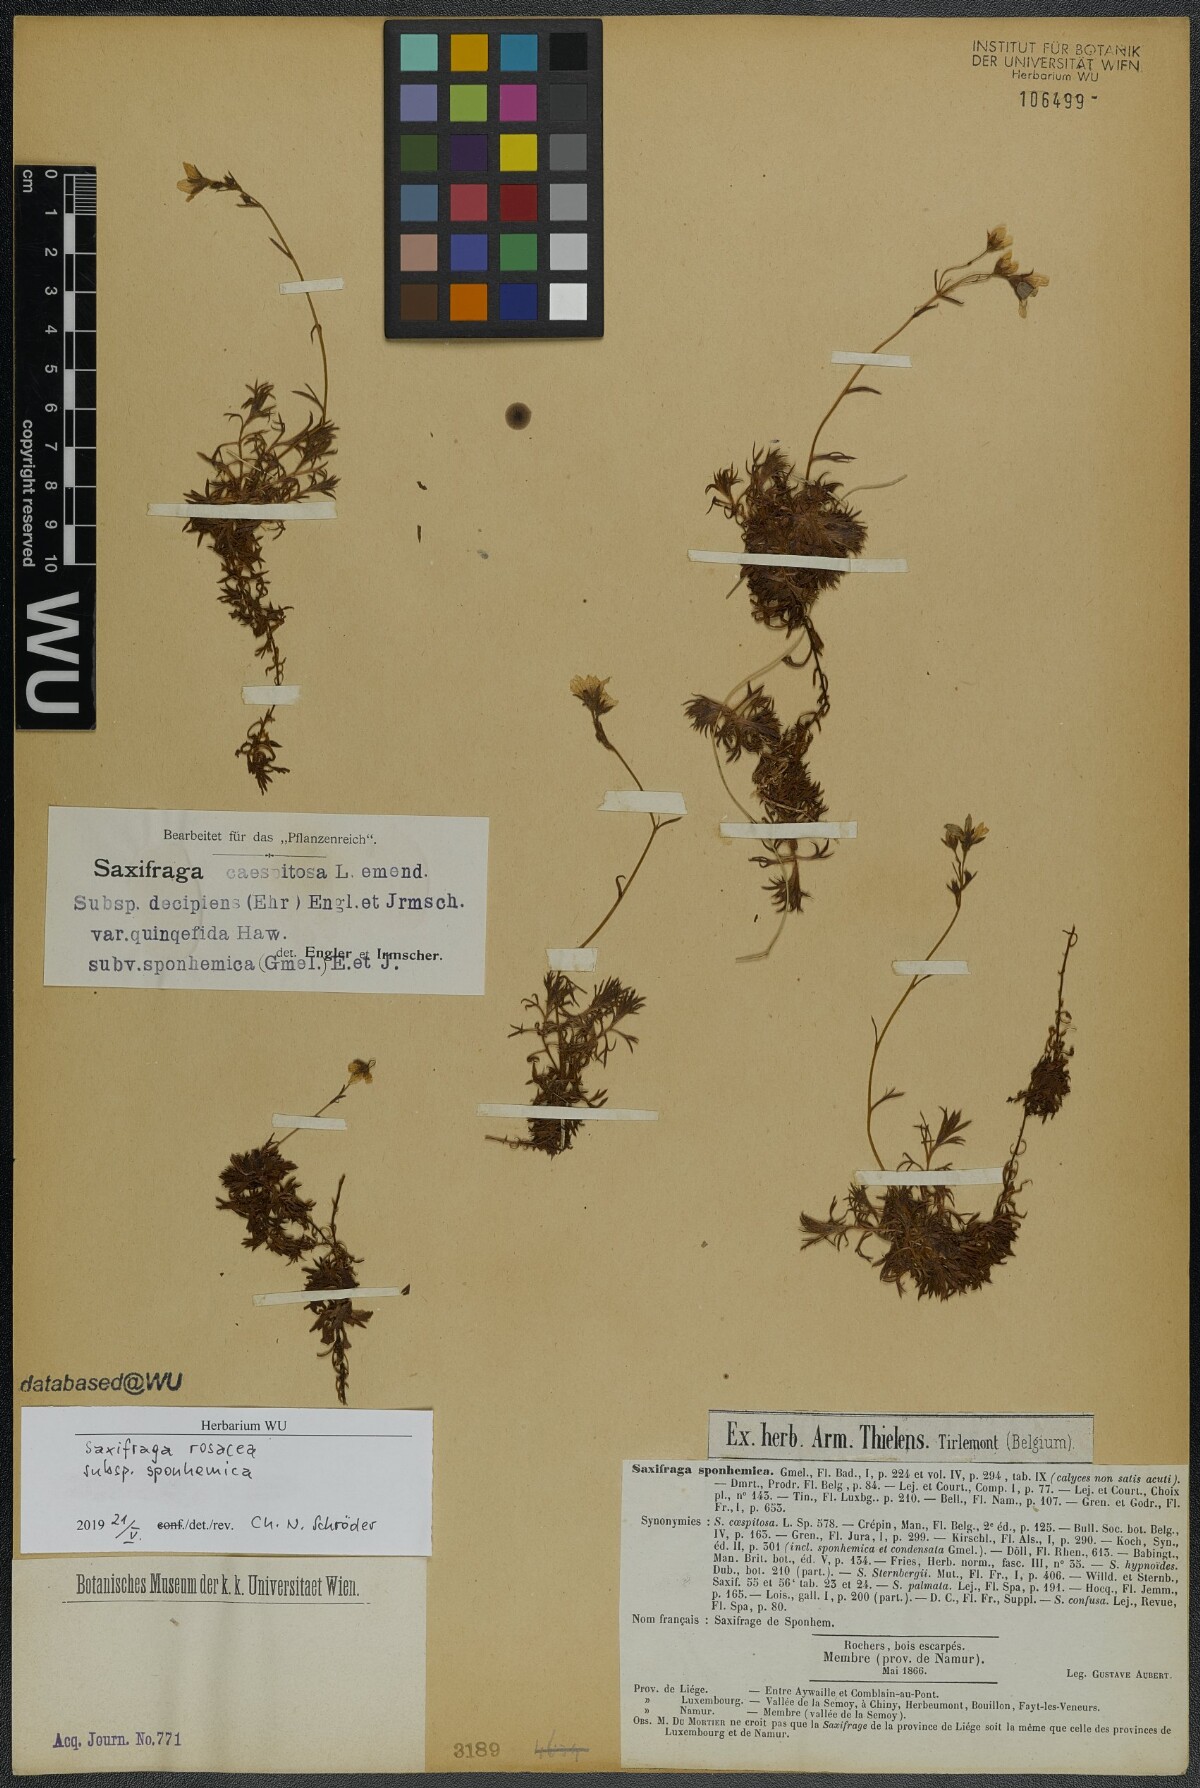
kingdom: Plantae
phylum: Tracheophyta
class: Magnoliopsida
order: Saxifragales
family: Saxifragaceae
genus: Saxifraga
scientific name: Saxifraga rosacea
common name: Irish saxifrage
